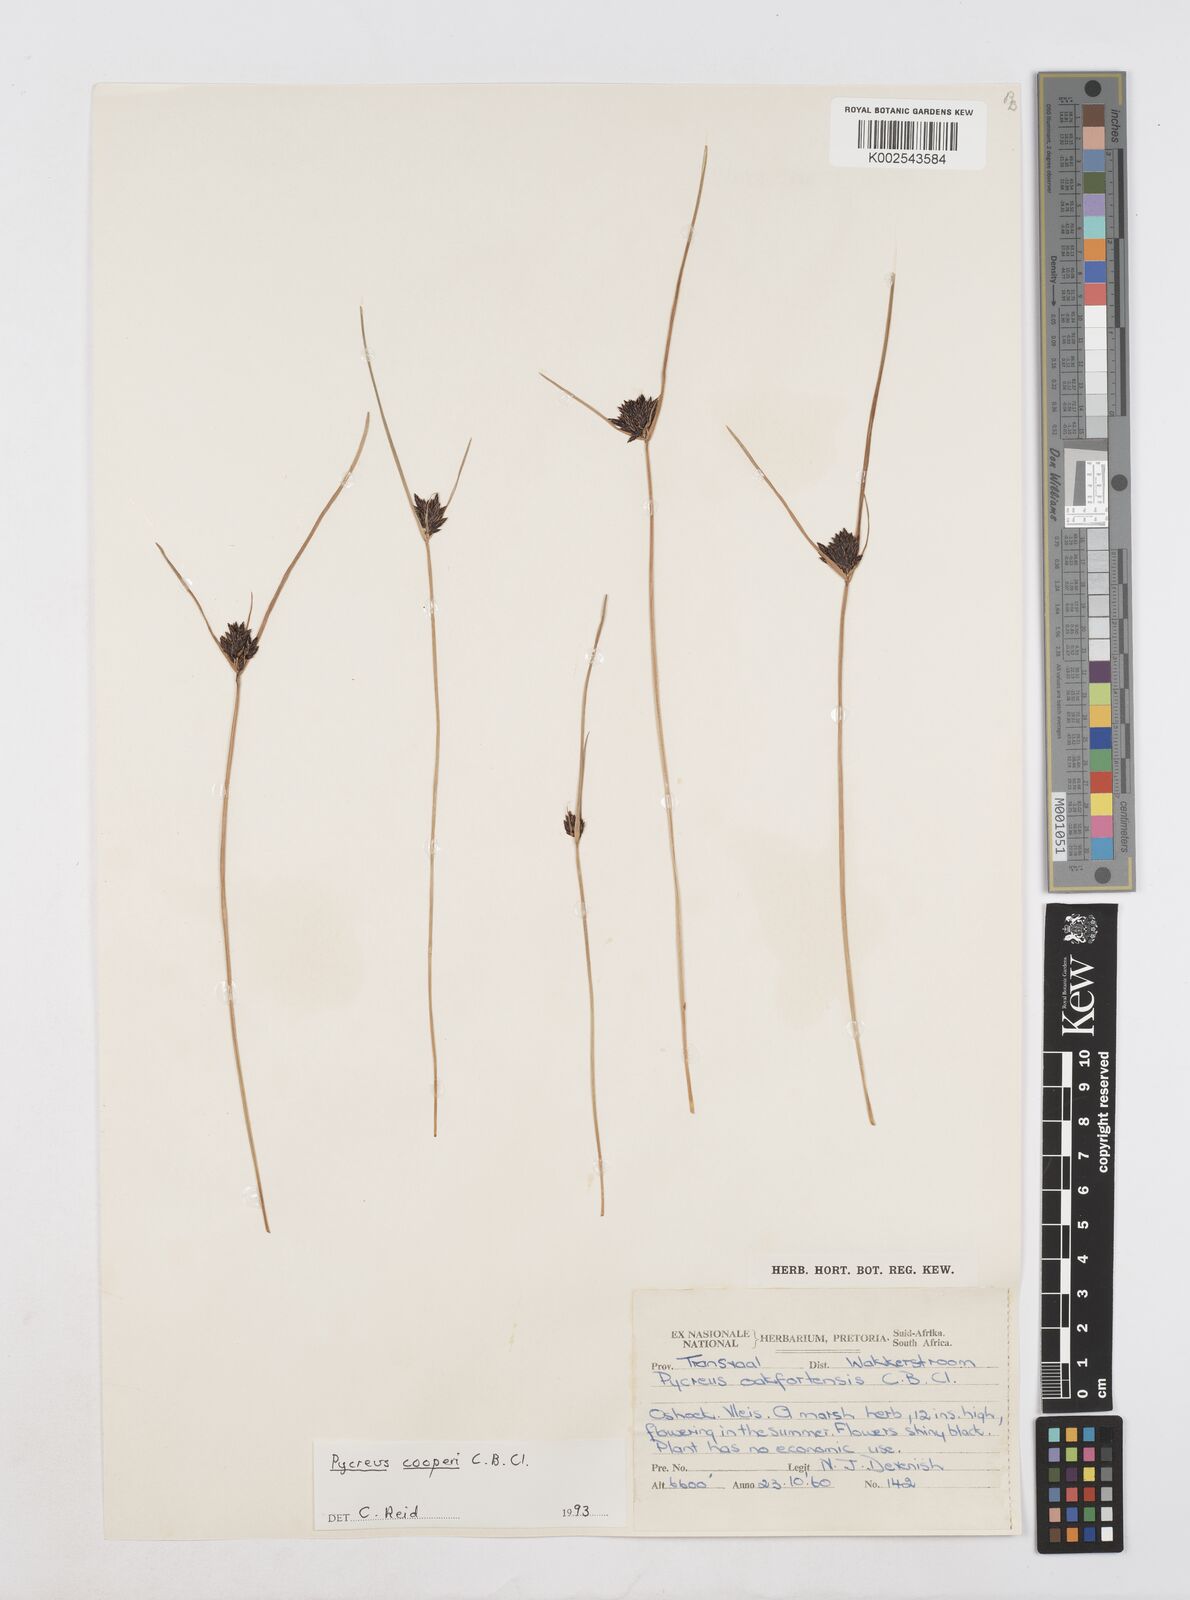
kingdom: Plantae
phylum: Tracheophyta
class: Liliopsida
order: Poales
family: Cyperaceae
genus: Cyperus
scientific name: Cyperus
